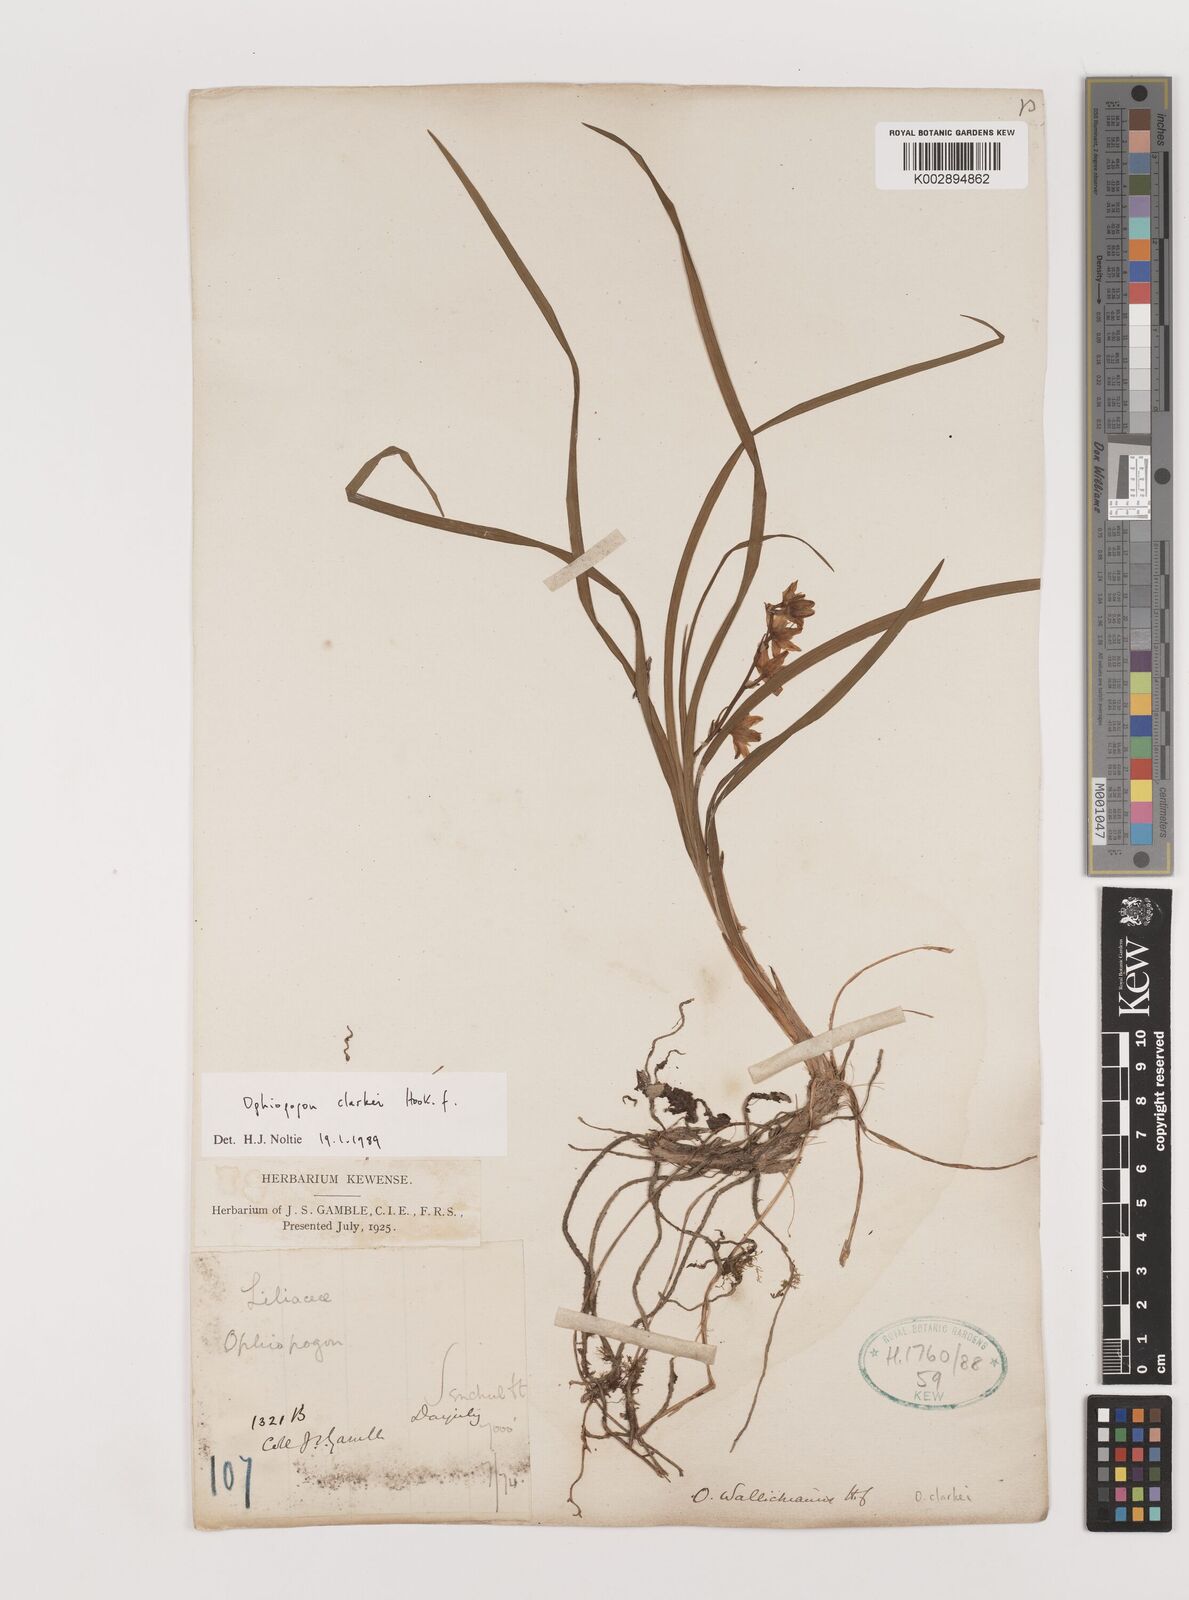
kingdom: Plantae
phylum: Tracheophyta
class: Liliopsida
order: Asparagales
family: Asparagaceae
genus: Ophiopogon
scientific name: Ophiopogon clarkei
